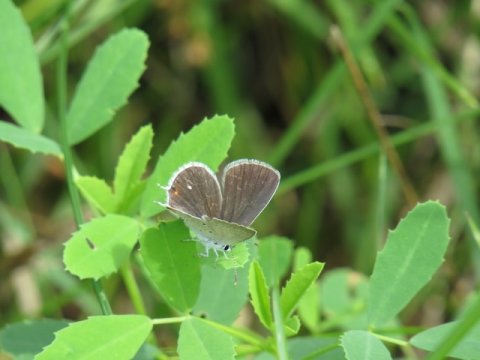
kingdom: Animalia
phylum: Arthropoda
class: Insecta
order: Lepidoptera
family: Lycaenidae
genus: Elkalyce
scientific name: Elkalyce comyntas
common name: Eastern Tailed-Blue
